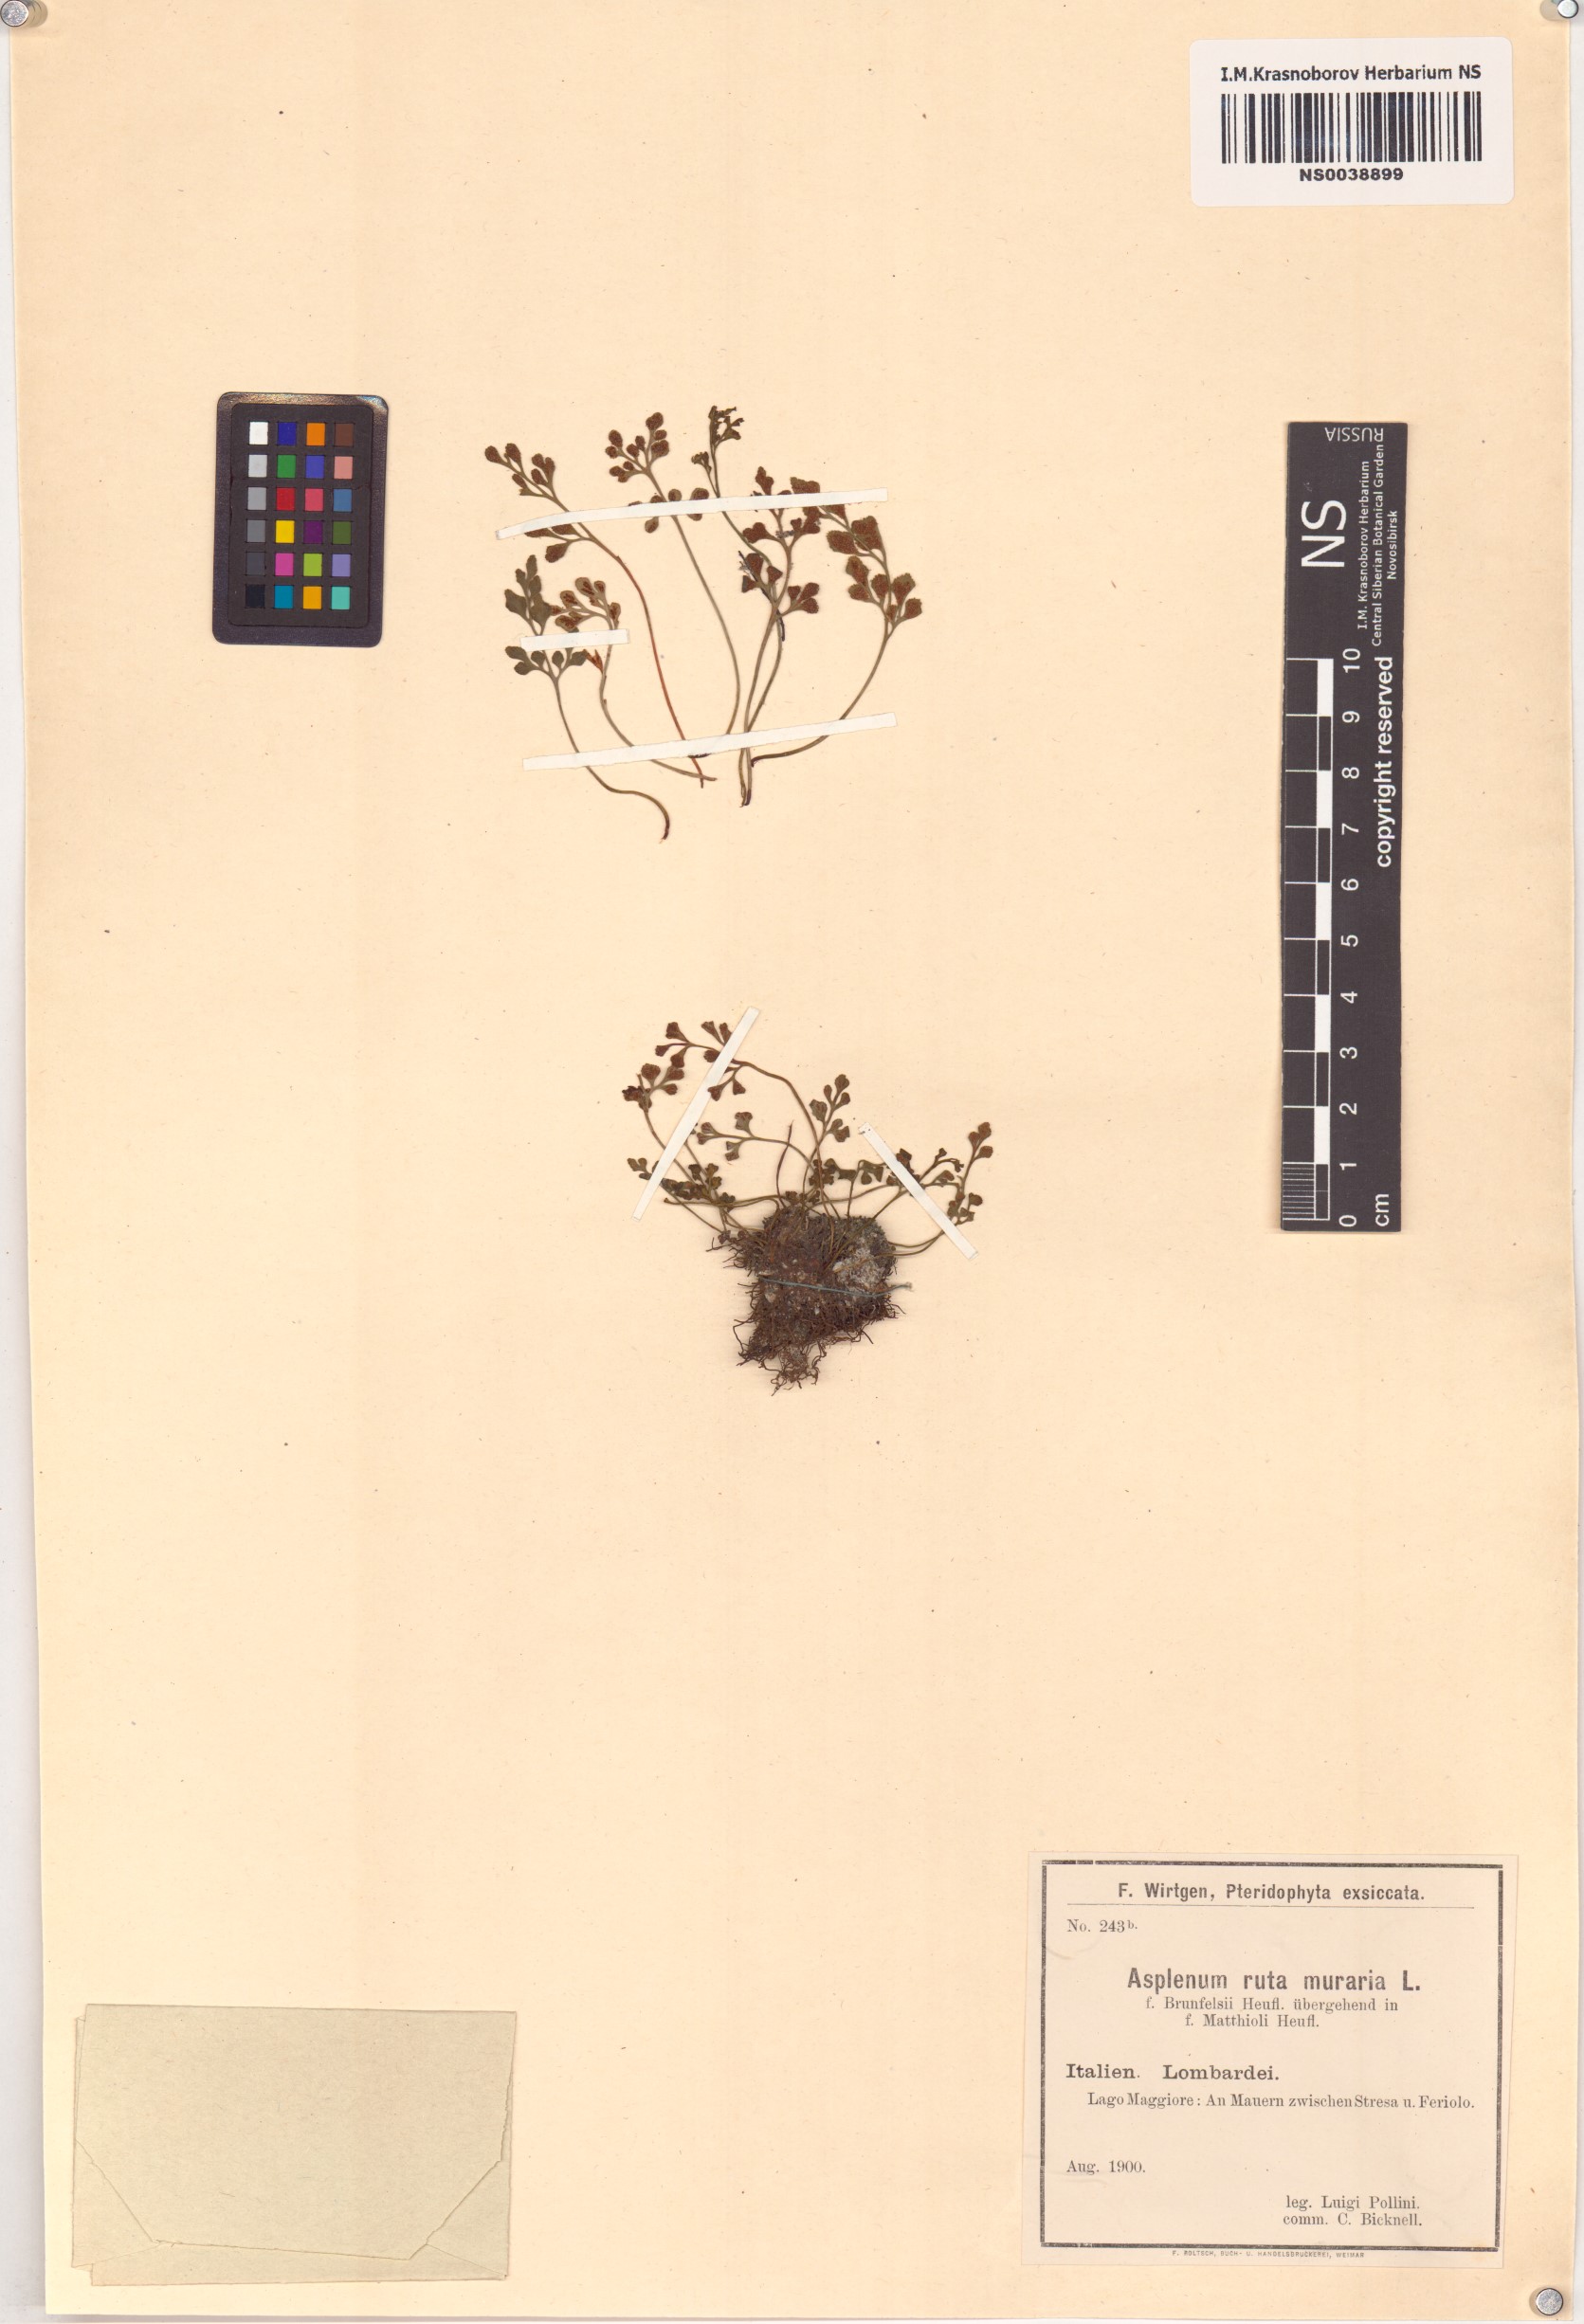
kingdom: Plantae
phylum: Tracheophyta
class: Polypodiopsida
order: Polypodiales
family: Aspleniaceae
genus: Asplenium
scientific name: Asplenium ruta-muraria
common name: Wall-rue
